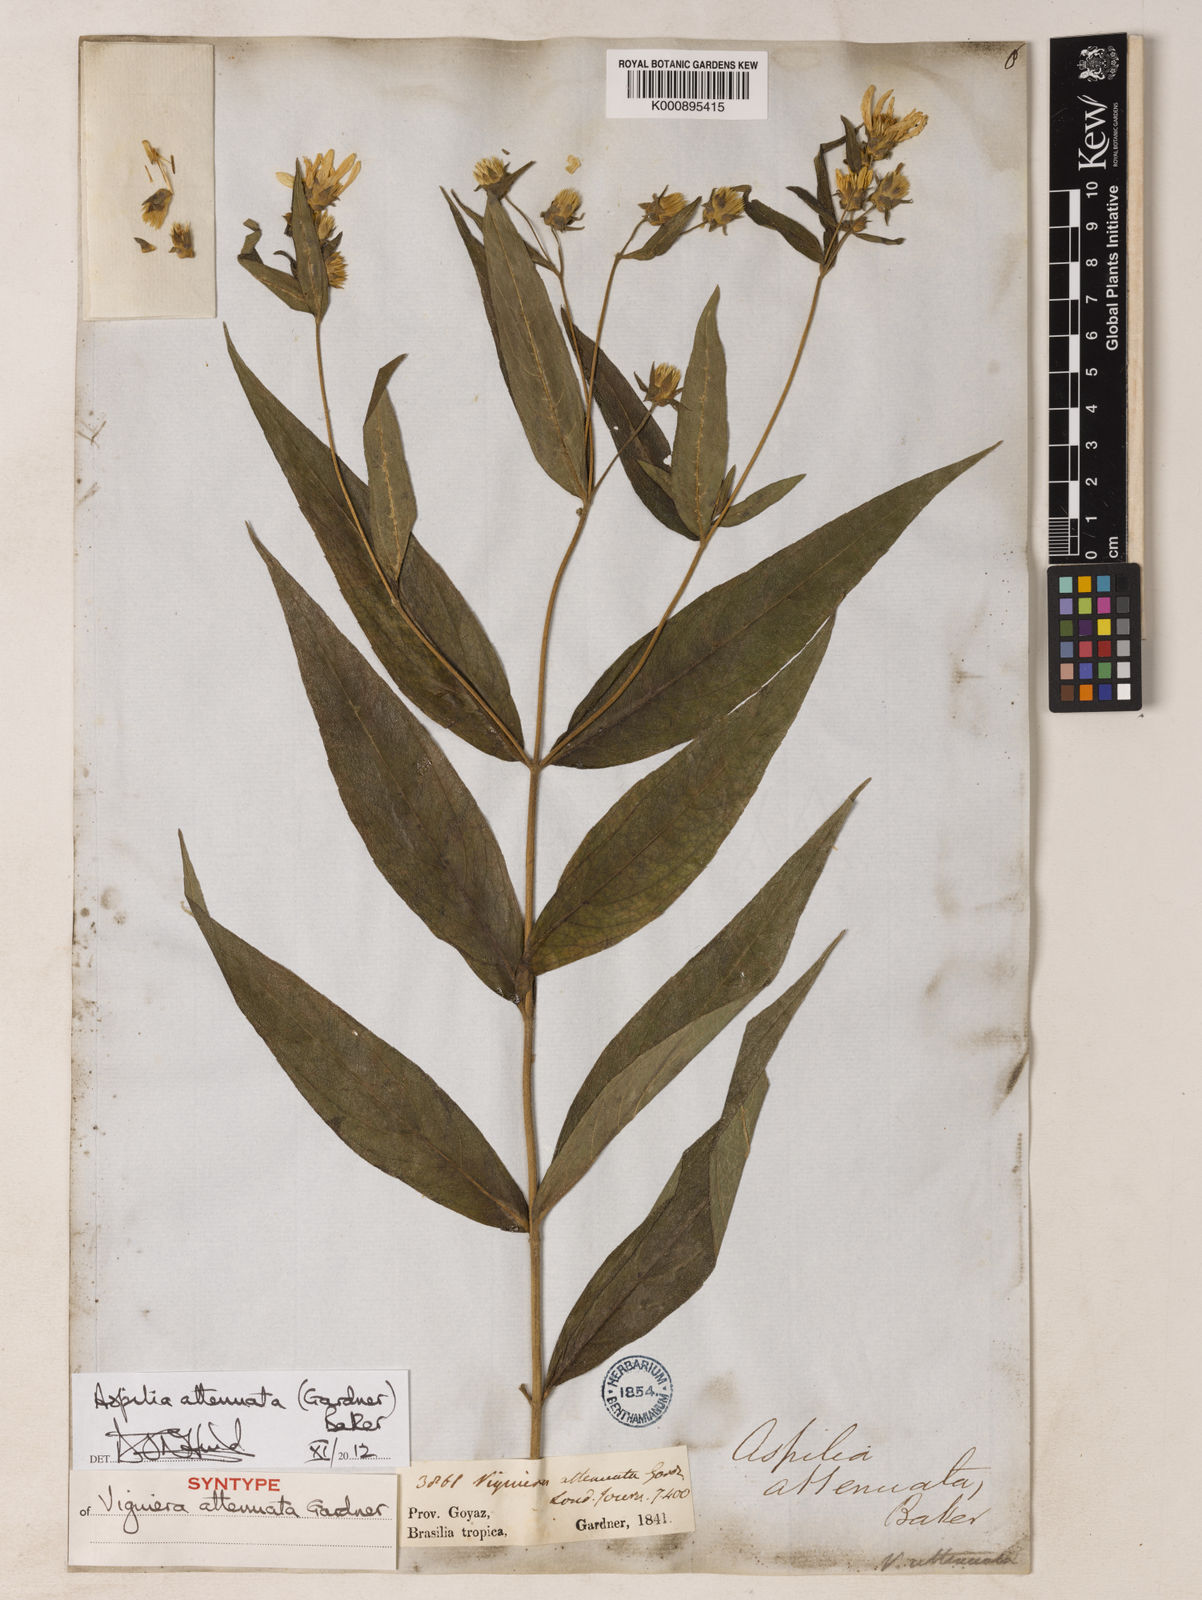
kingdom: Plantae
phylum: Tracheophyta
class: Magnoliopsida
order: Asterales
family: Asteraceae
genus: Wedelia
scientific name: Wedelia attenuata
